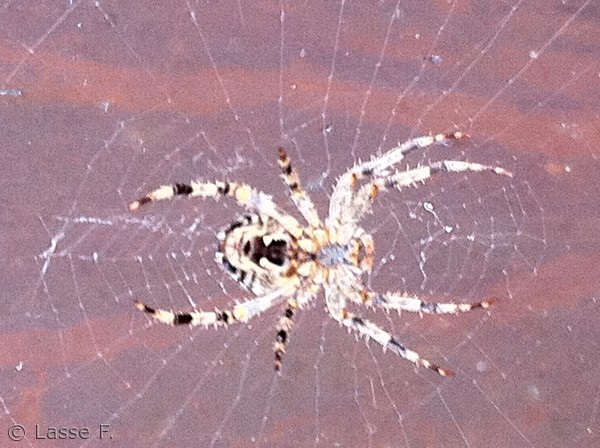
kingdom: Animalia
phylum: Arthropoda
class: Arachnida
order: Araneae
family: Araneidae
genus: Araneus
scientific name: Araneus diadematus
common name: Korsedderkop
